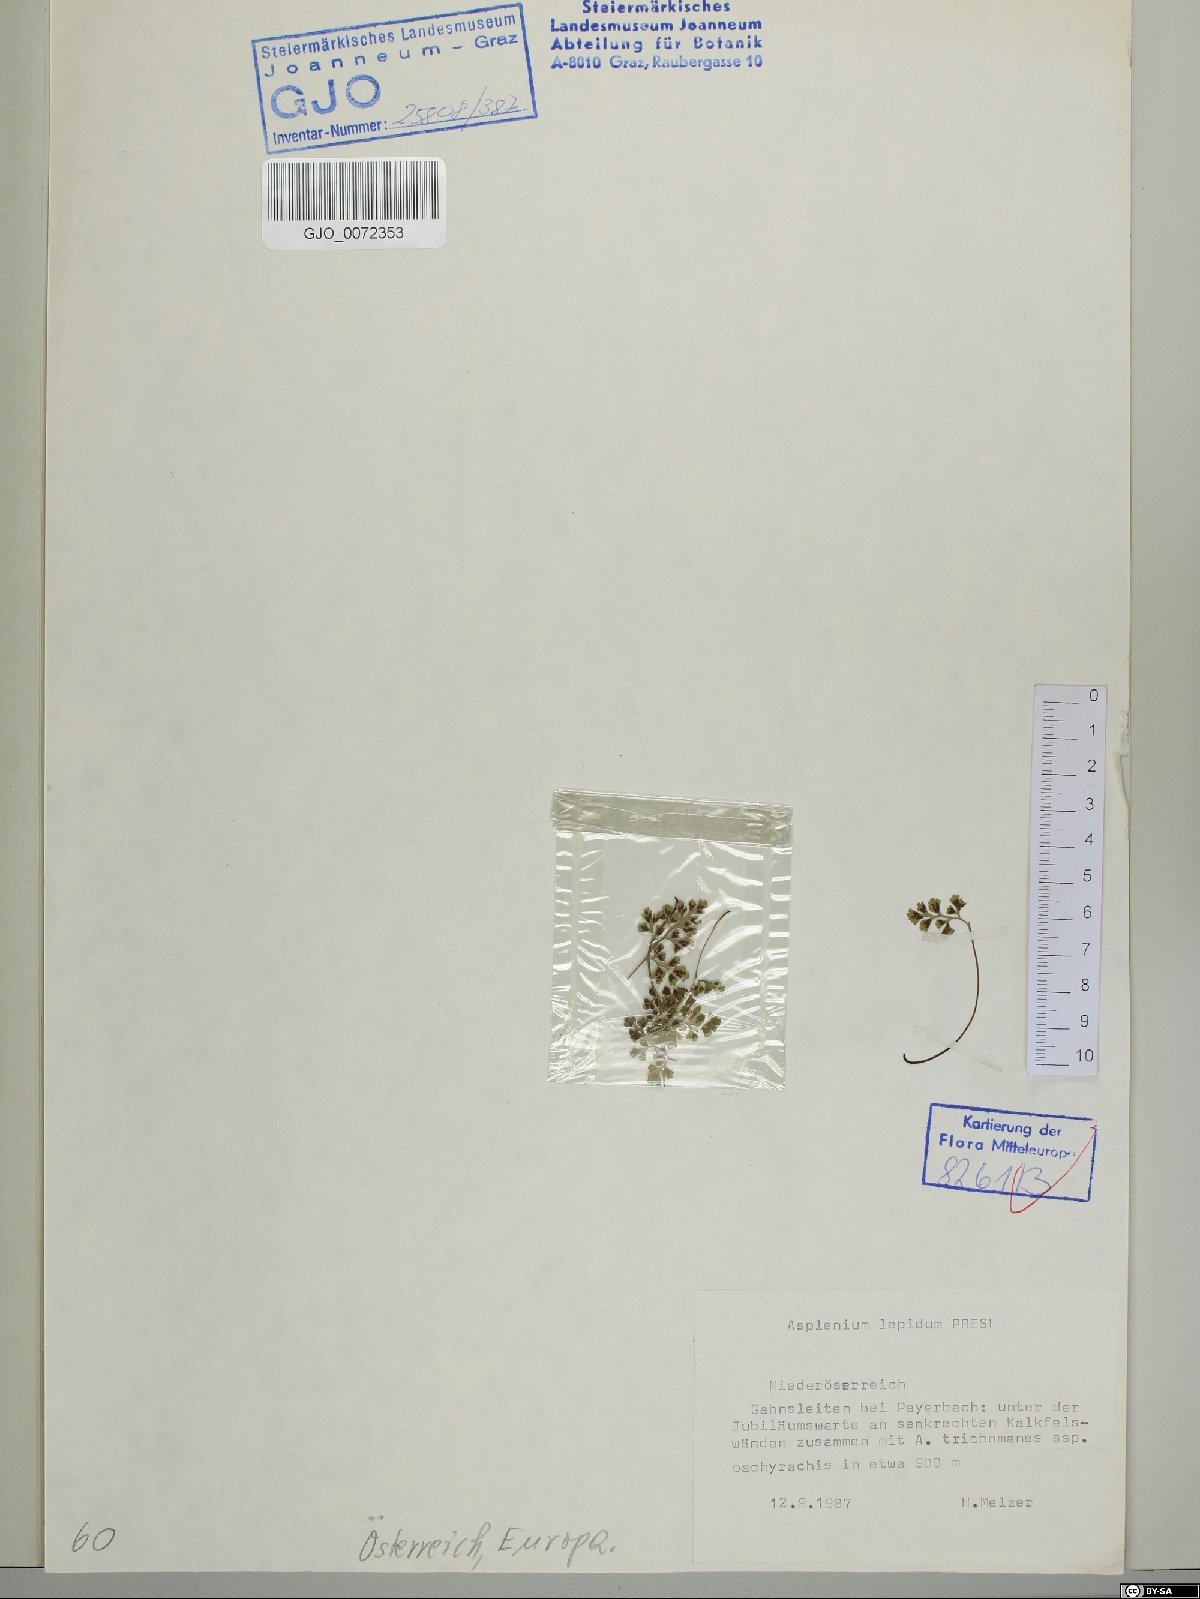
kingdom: Plantae
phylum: Tracheophyta
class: Polypodiopsida
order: Polypodiales
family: Aspleniaceae
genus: Asplenium
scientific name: Asplenium lepidum
